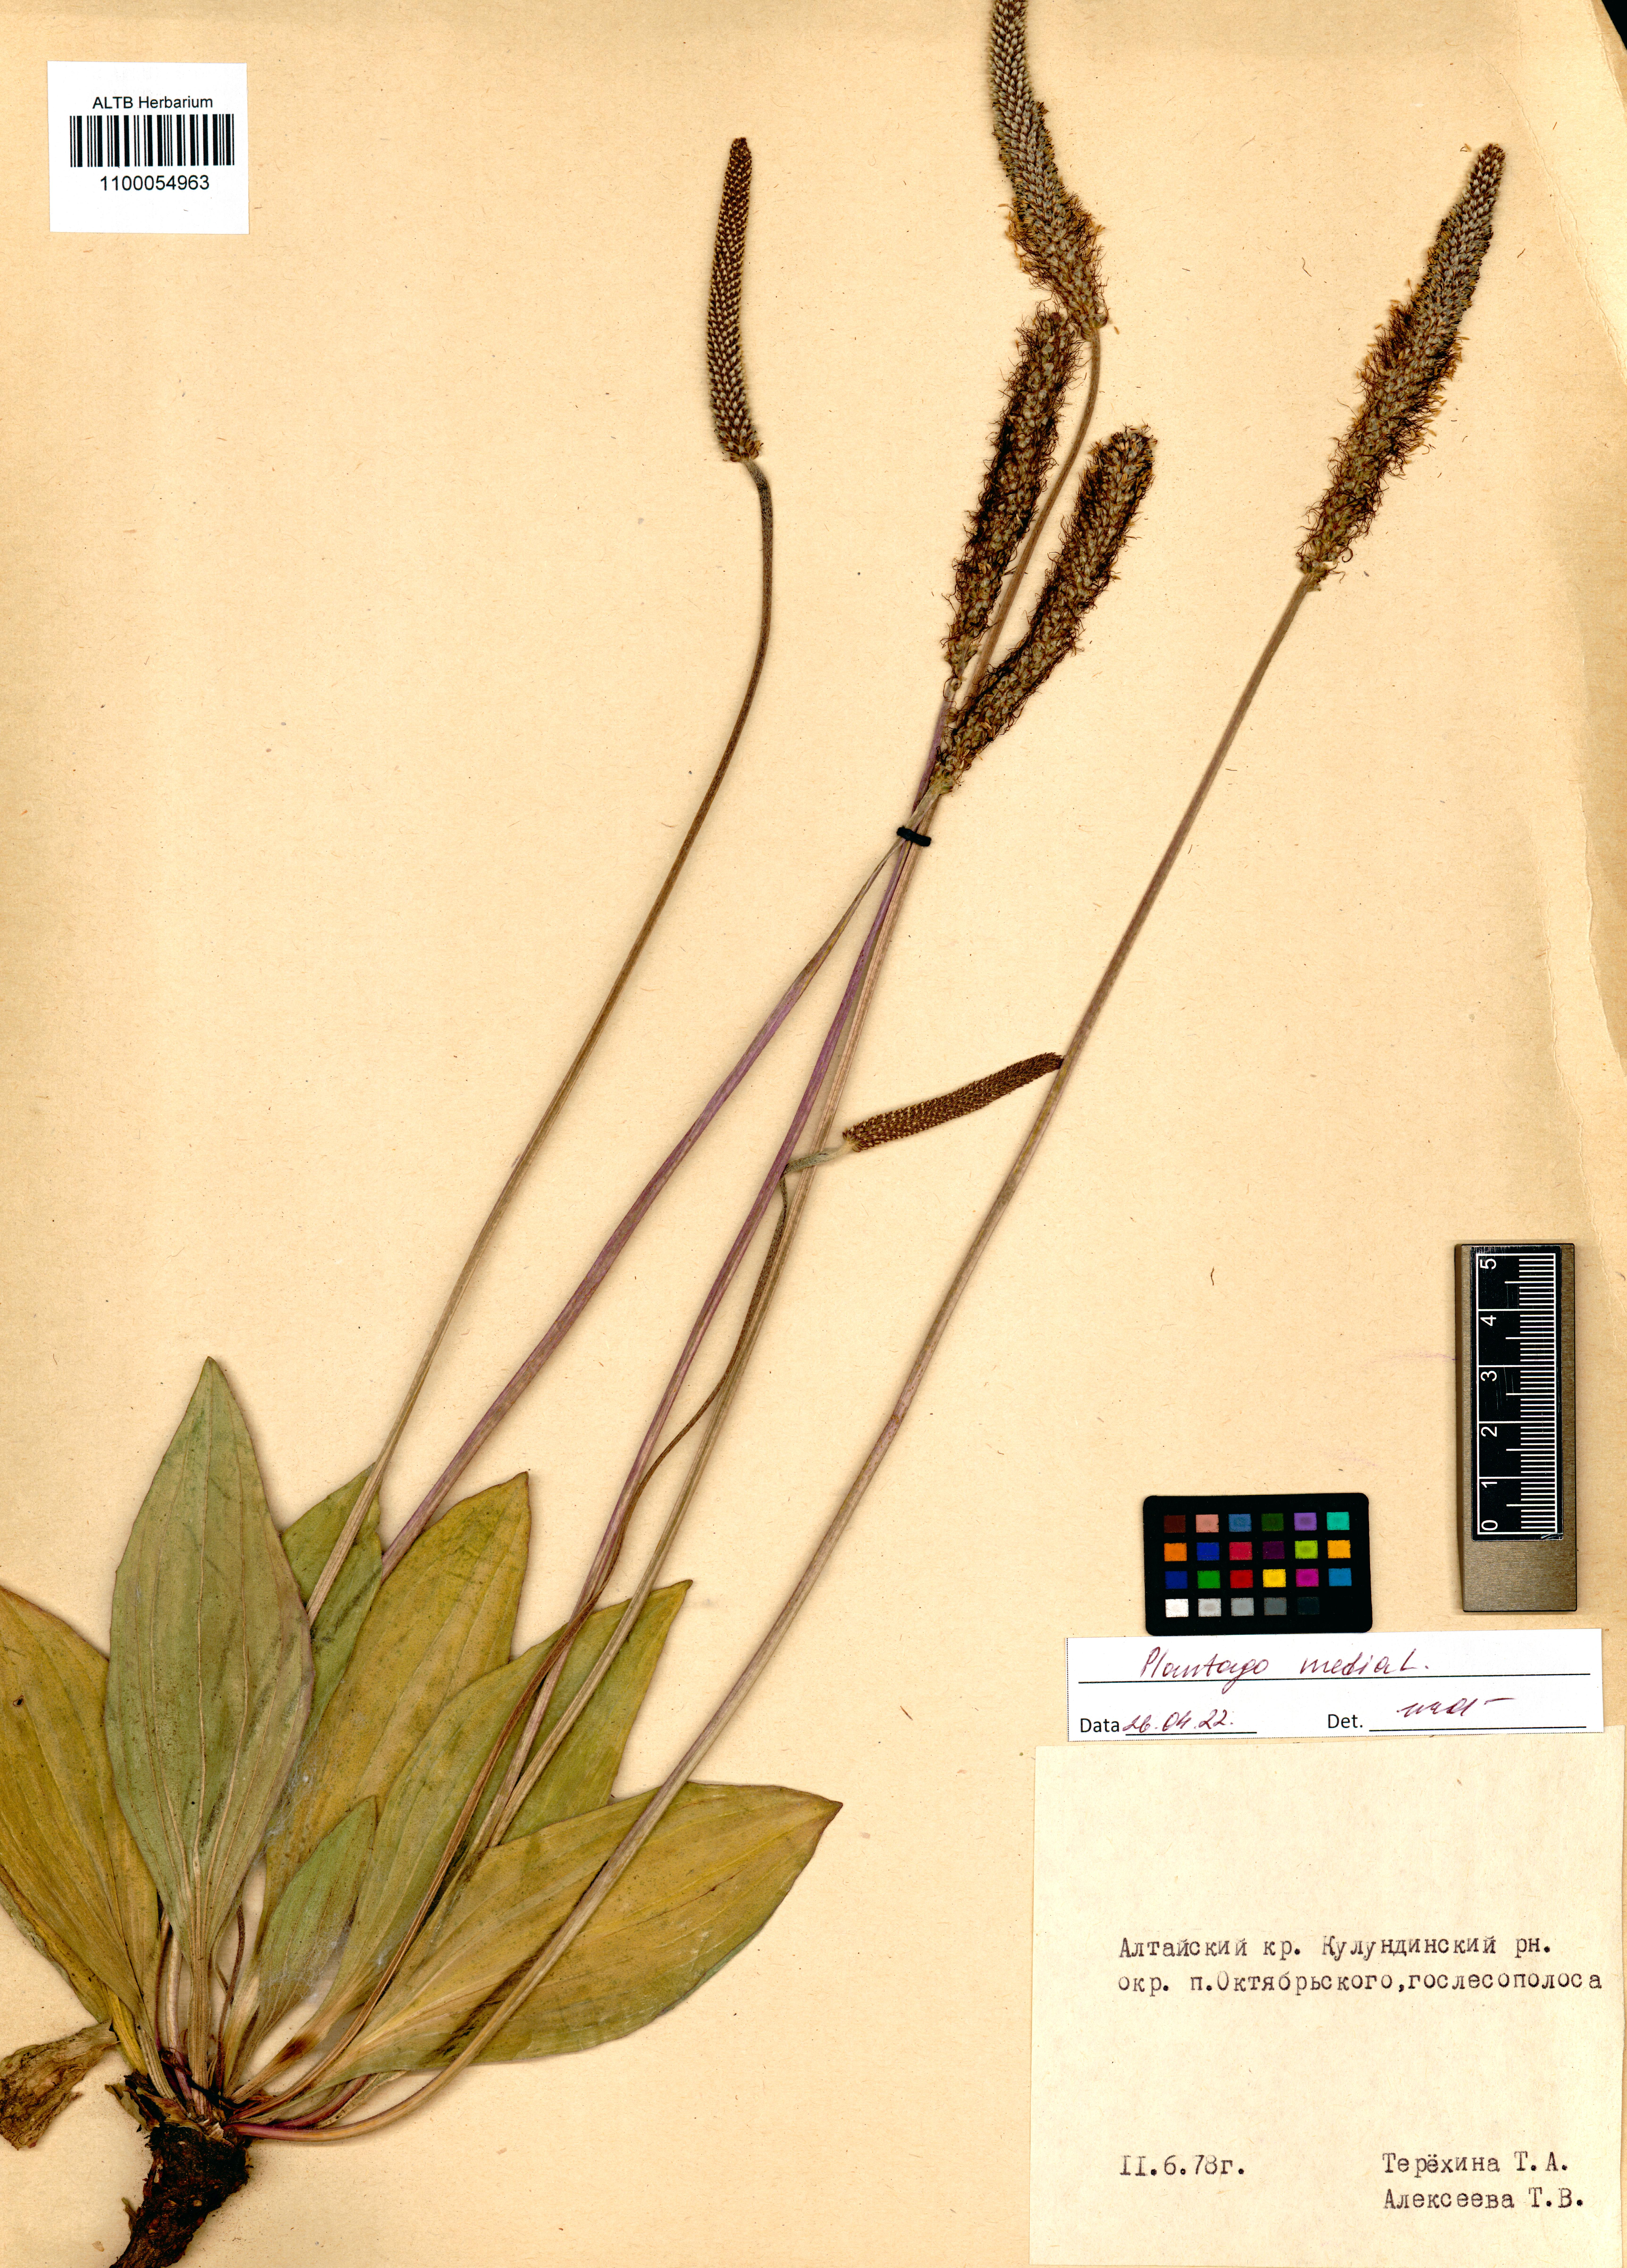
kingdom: Plantae
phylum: Tracheophyta
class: Magnoliopsida
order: Lamiales
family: Plantaginaceae
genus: Plantago
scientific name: Plantago media
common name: Hoary plantain
